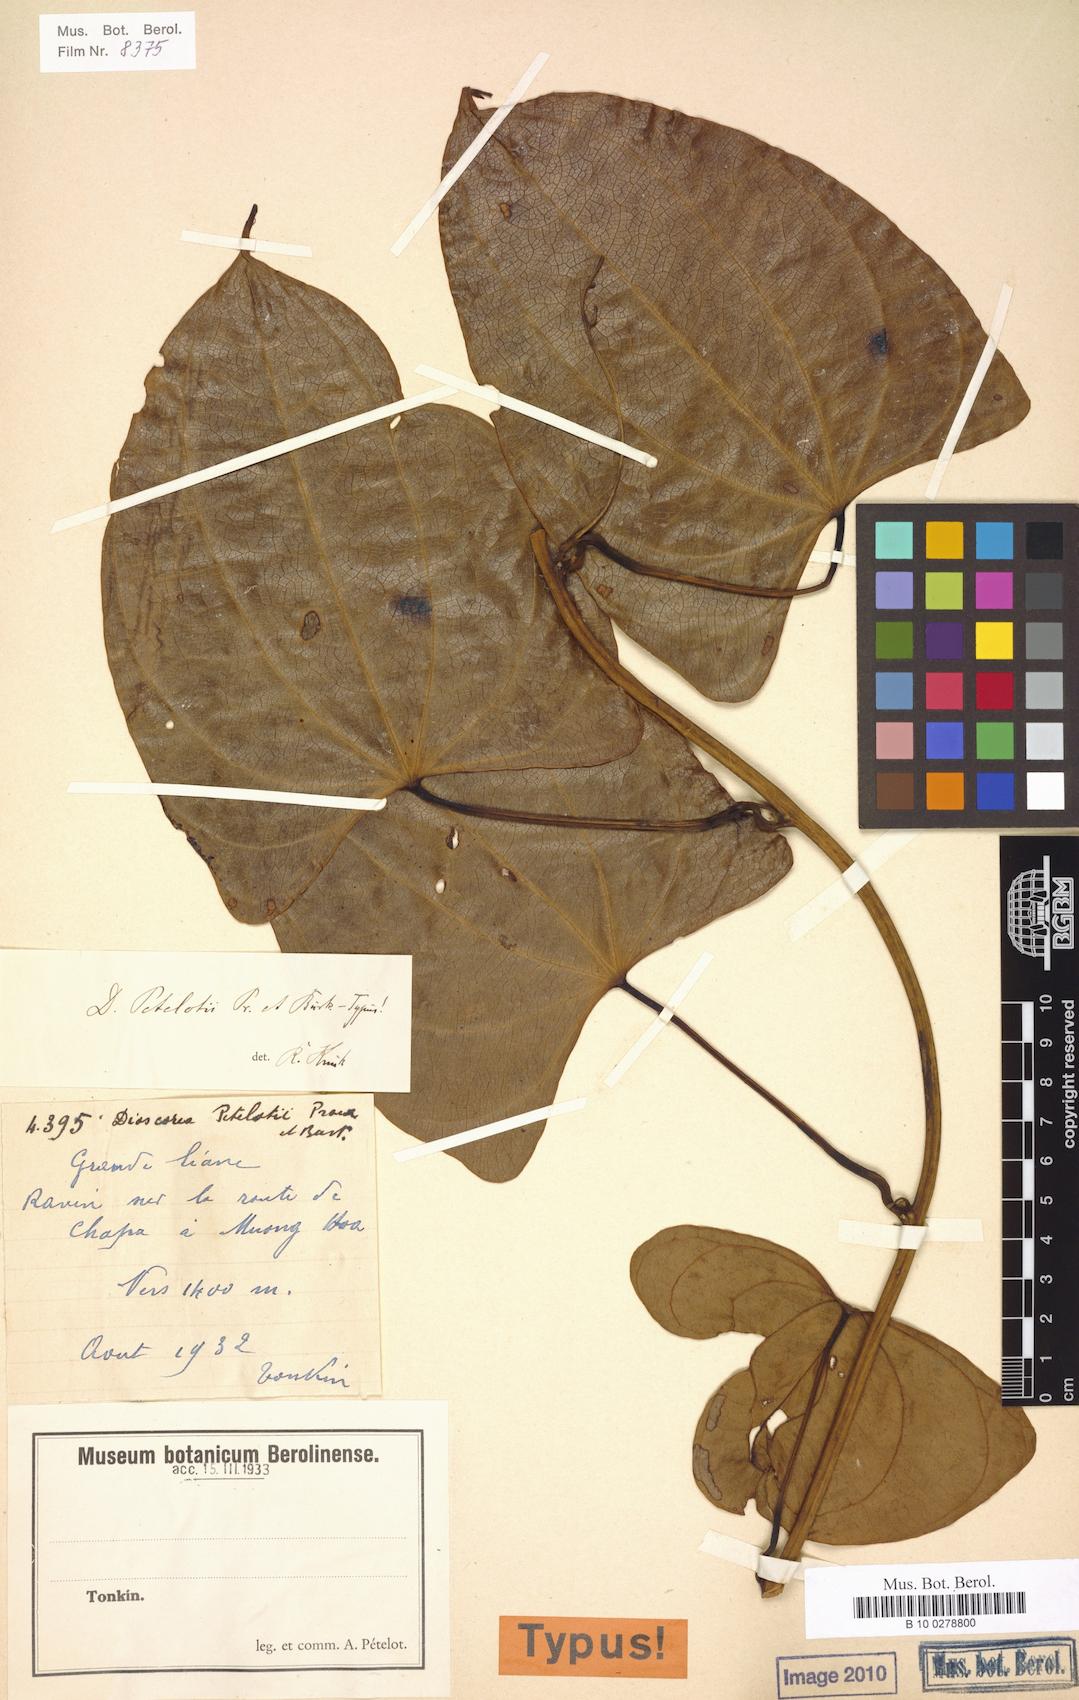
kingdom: Plantae
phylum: Tracheophyta
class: Liliopsida
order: Dioscoreales
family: Dioscoreaceae
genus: Dioscorea
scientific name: Dioscorea petelotii
